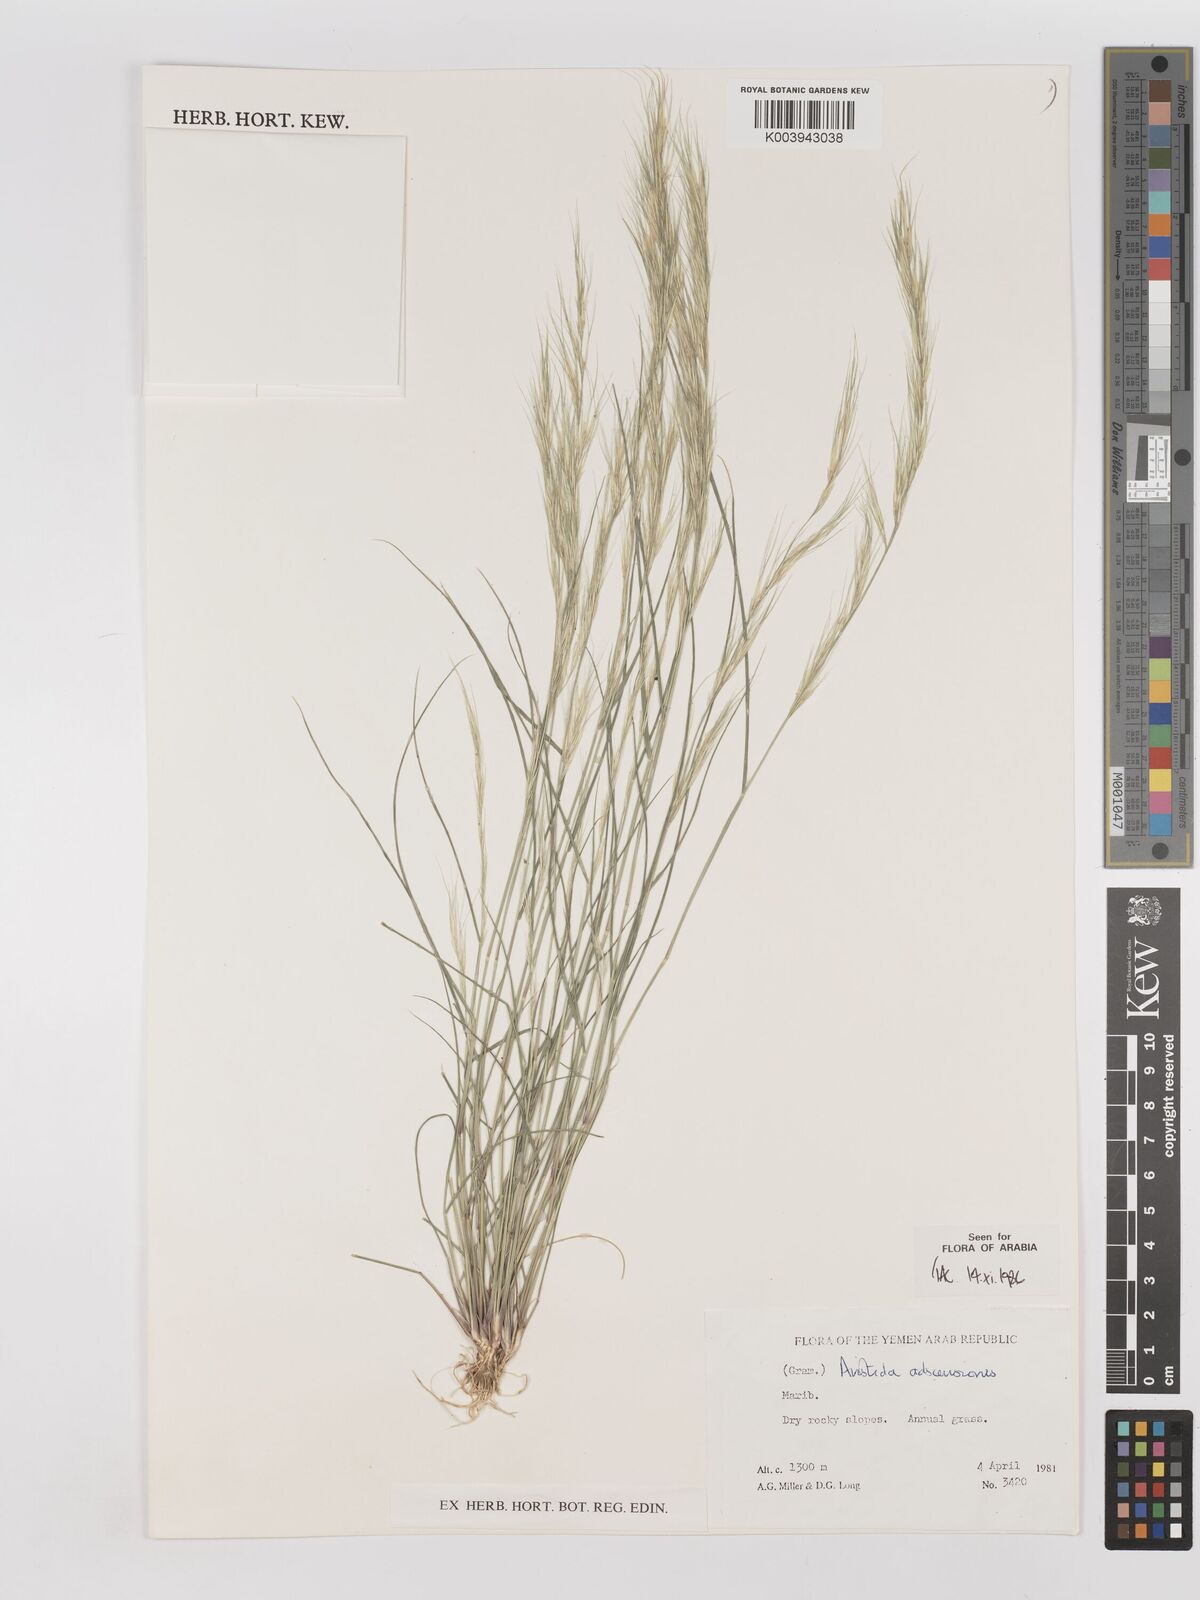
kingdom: Plantae
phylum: Tracheophyta
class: Liliopsida
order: Poales
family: Poaceae
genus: Aristida
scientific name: Aristida adscensionis
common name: Sixweeks threeawn
